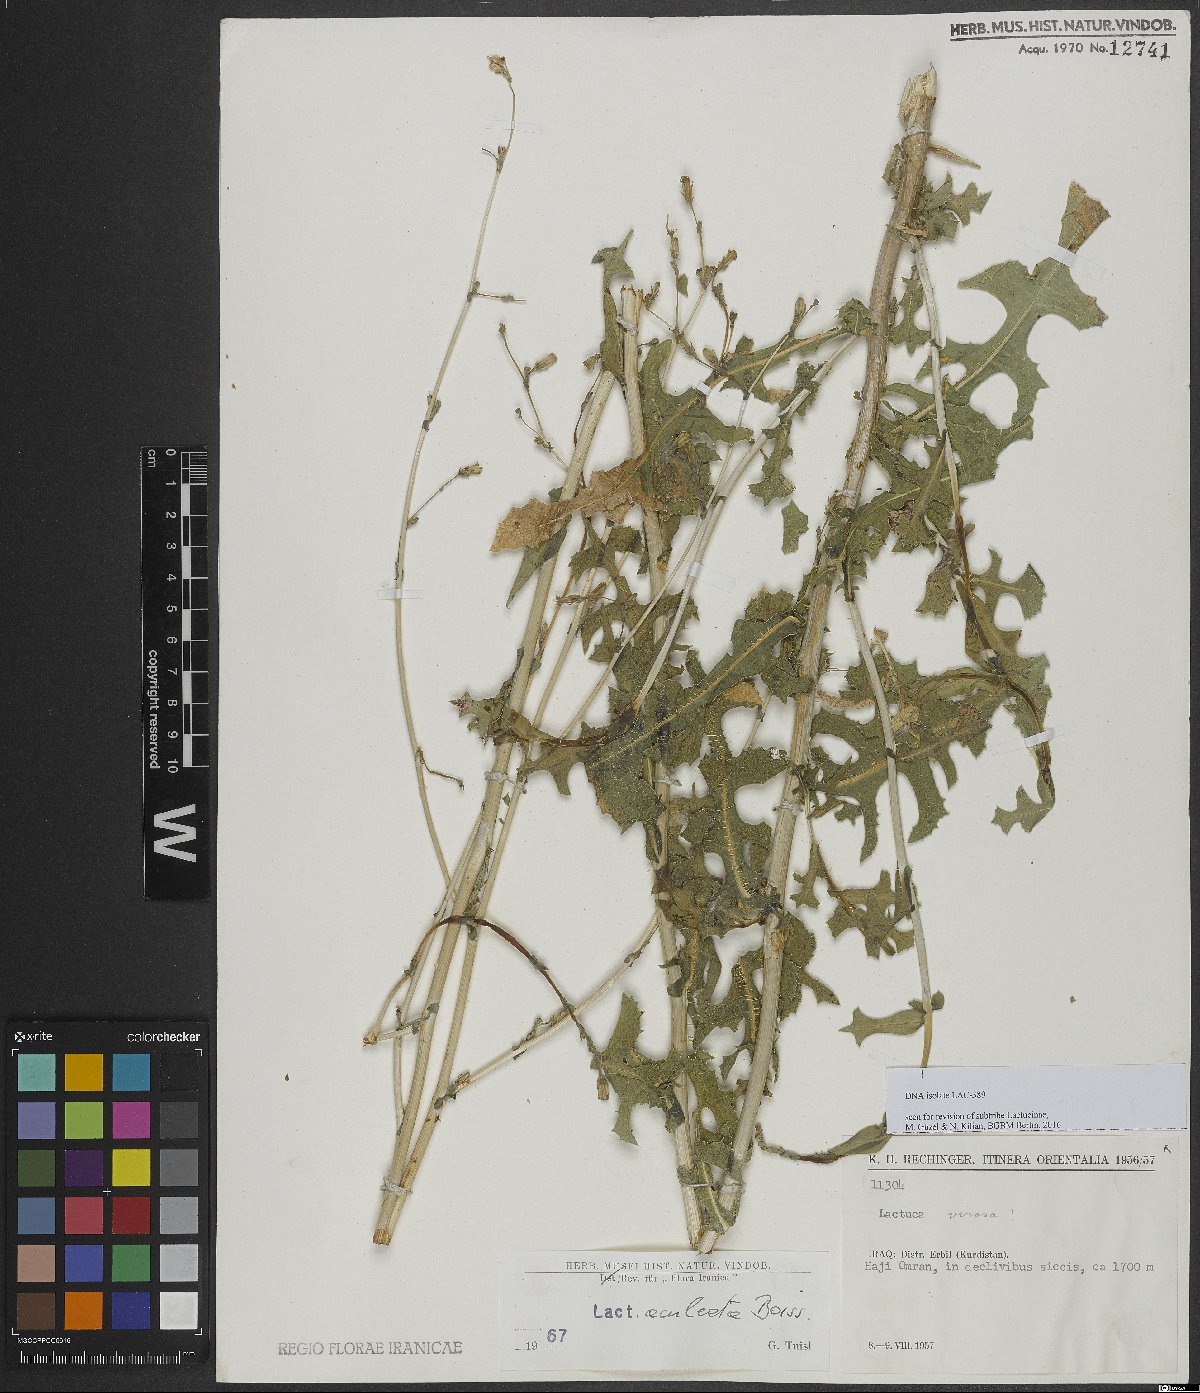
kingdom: Plantae
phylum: Tracheophyta
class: Magnoliopsida
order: Asterales
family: Asteraceae
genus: Lactuca
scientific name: Lactuca aculeata
